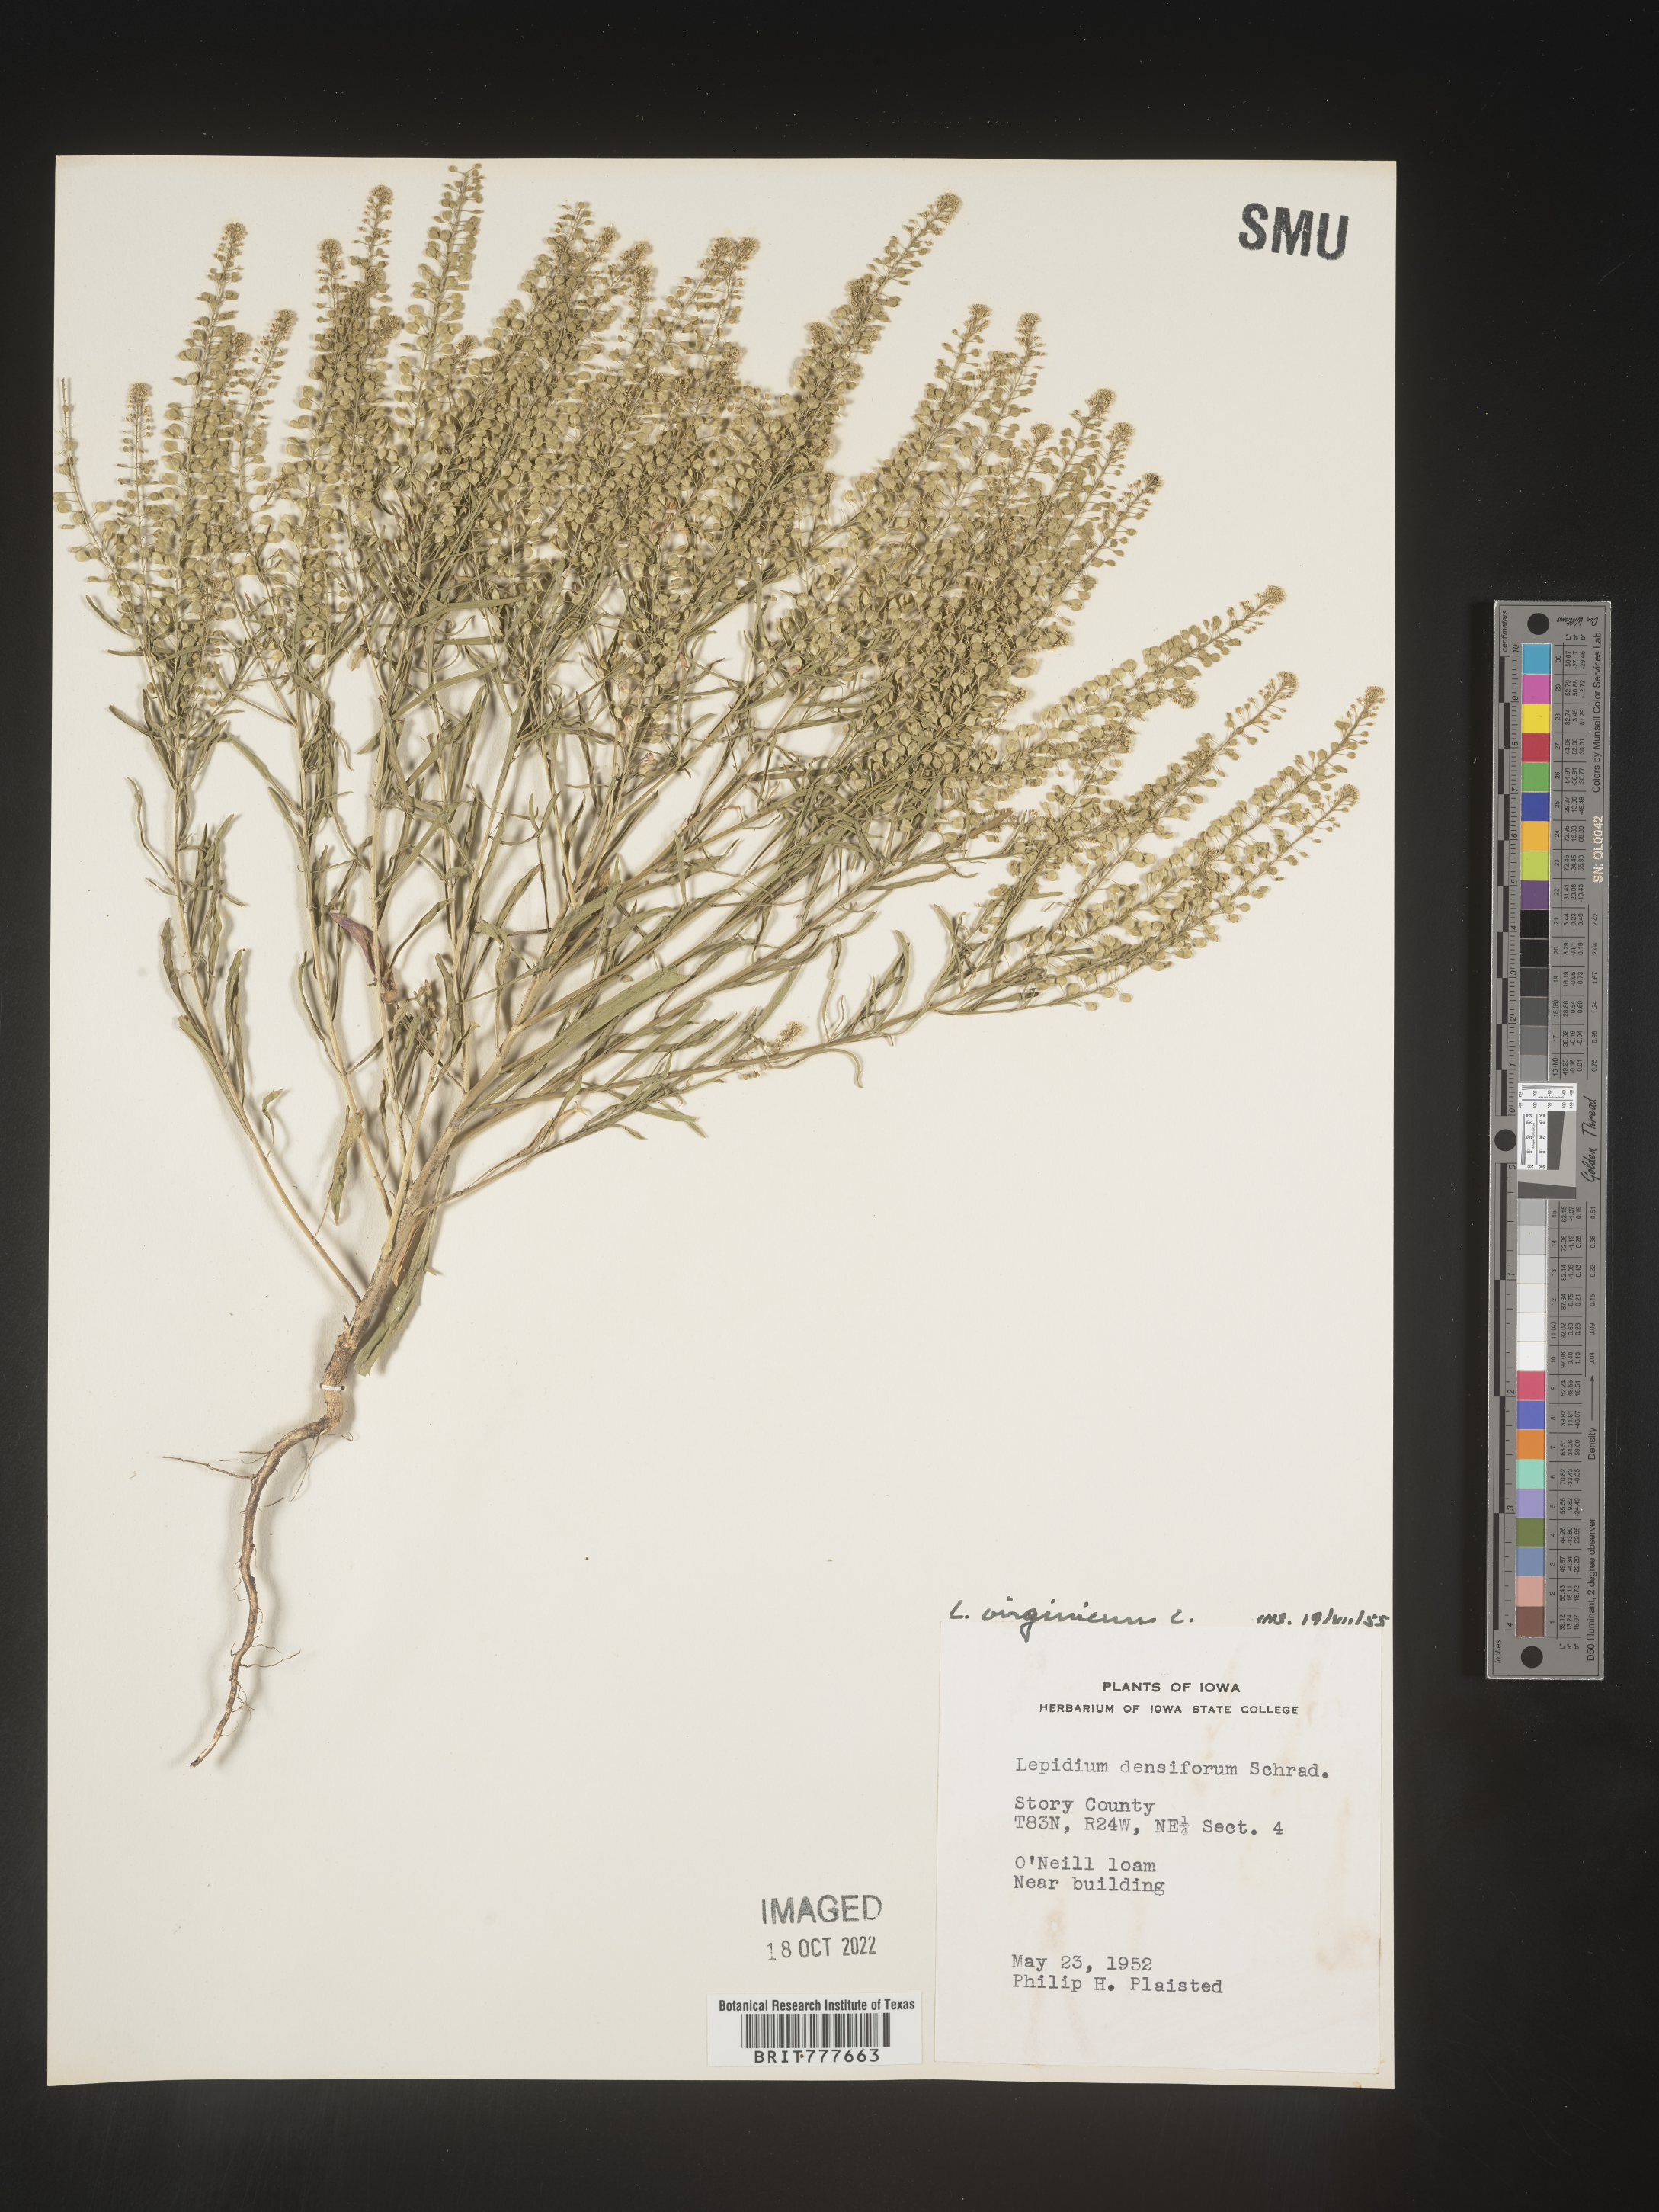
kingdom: Plantae
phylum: Tracheophyta
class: Magnoliopsida
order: Brassicales
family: Brassicaceae
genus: Lepidium
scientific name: Lepidium virginicum
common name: Least pepperwort
